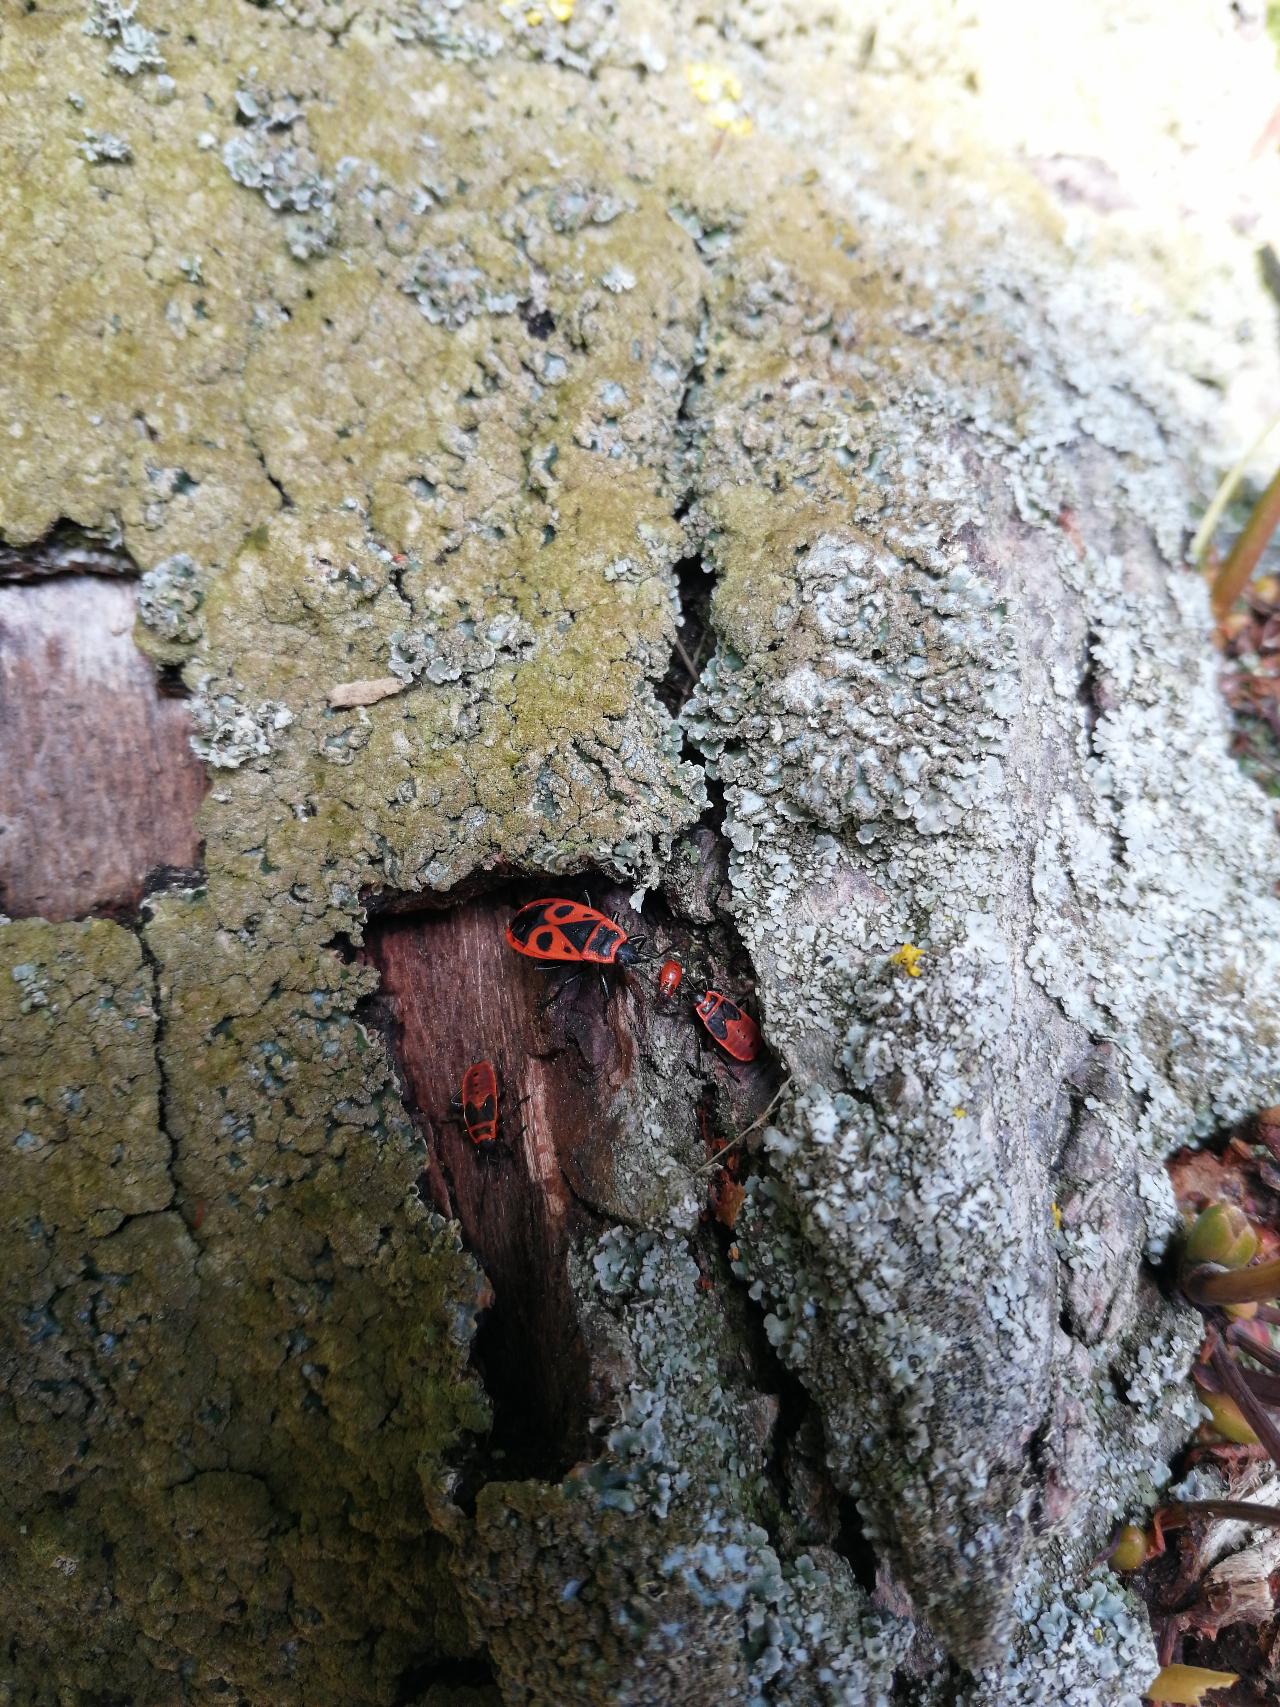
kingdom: Animalia
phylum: Arthropoda
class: Insecta
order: Hemiptera
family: Pyrrhocoridae
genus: Pyrrhocoris
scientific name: Pyrrhocoris apterus
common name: Ildtæge
